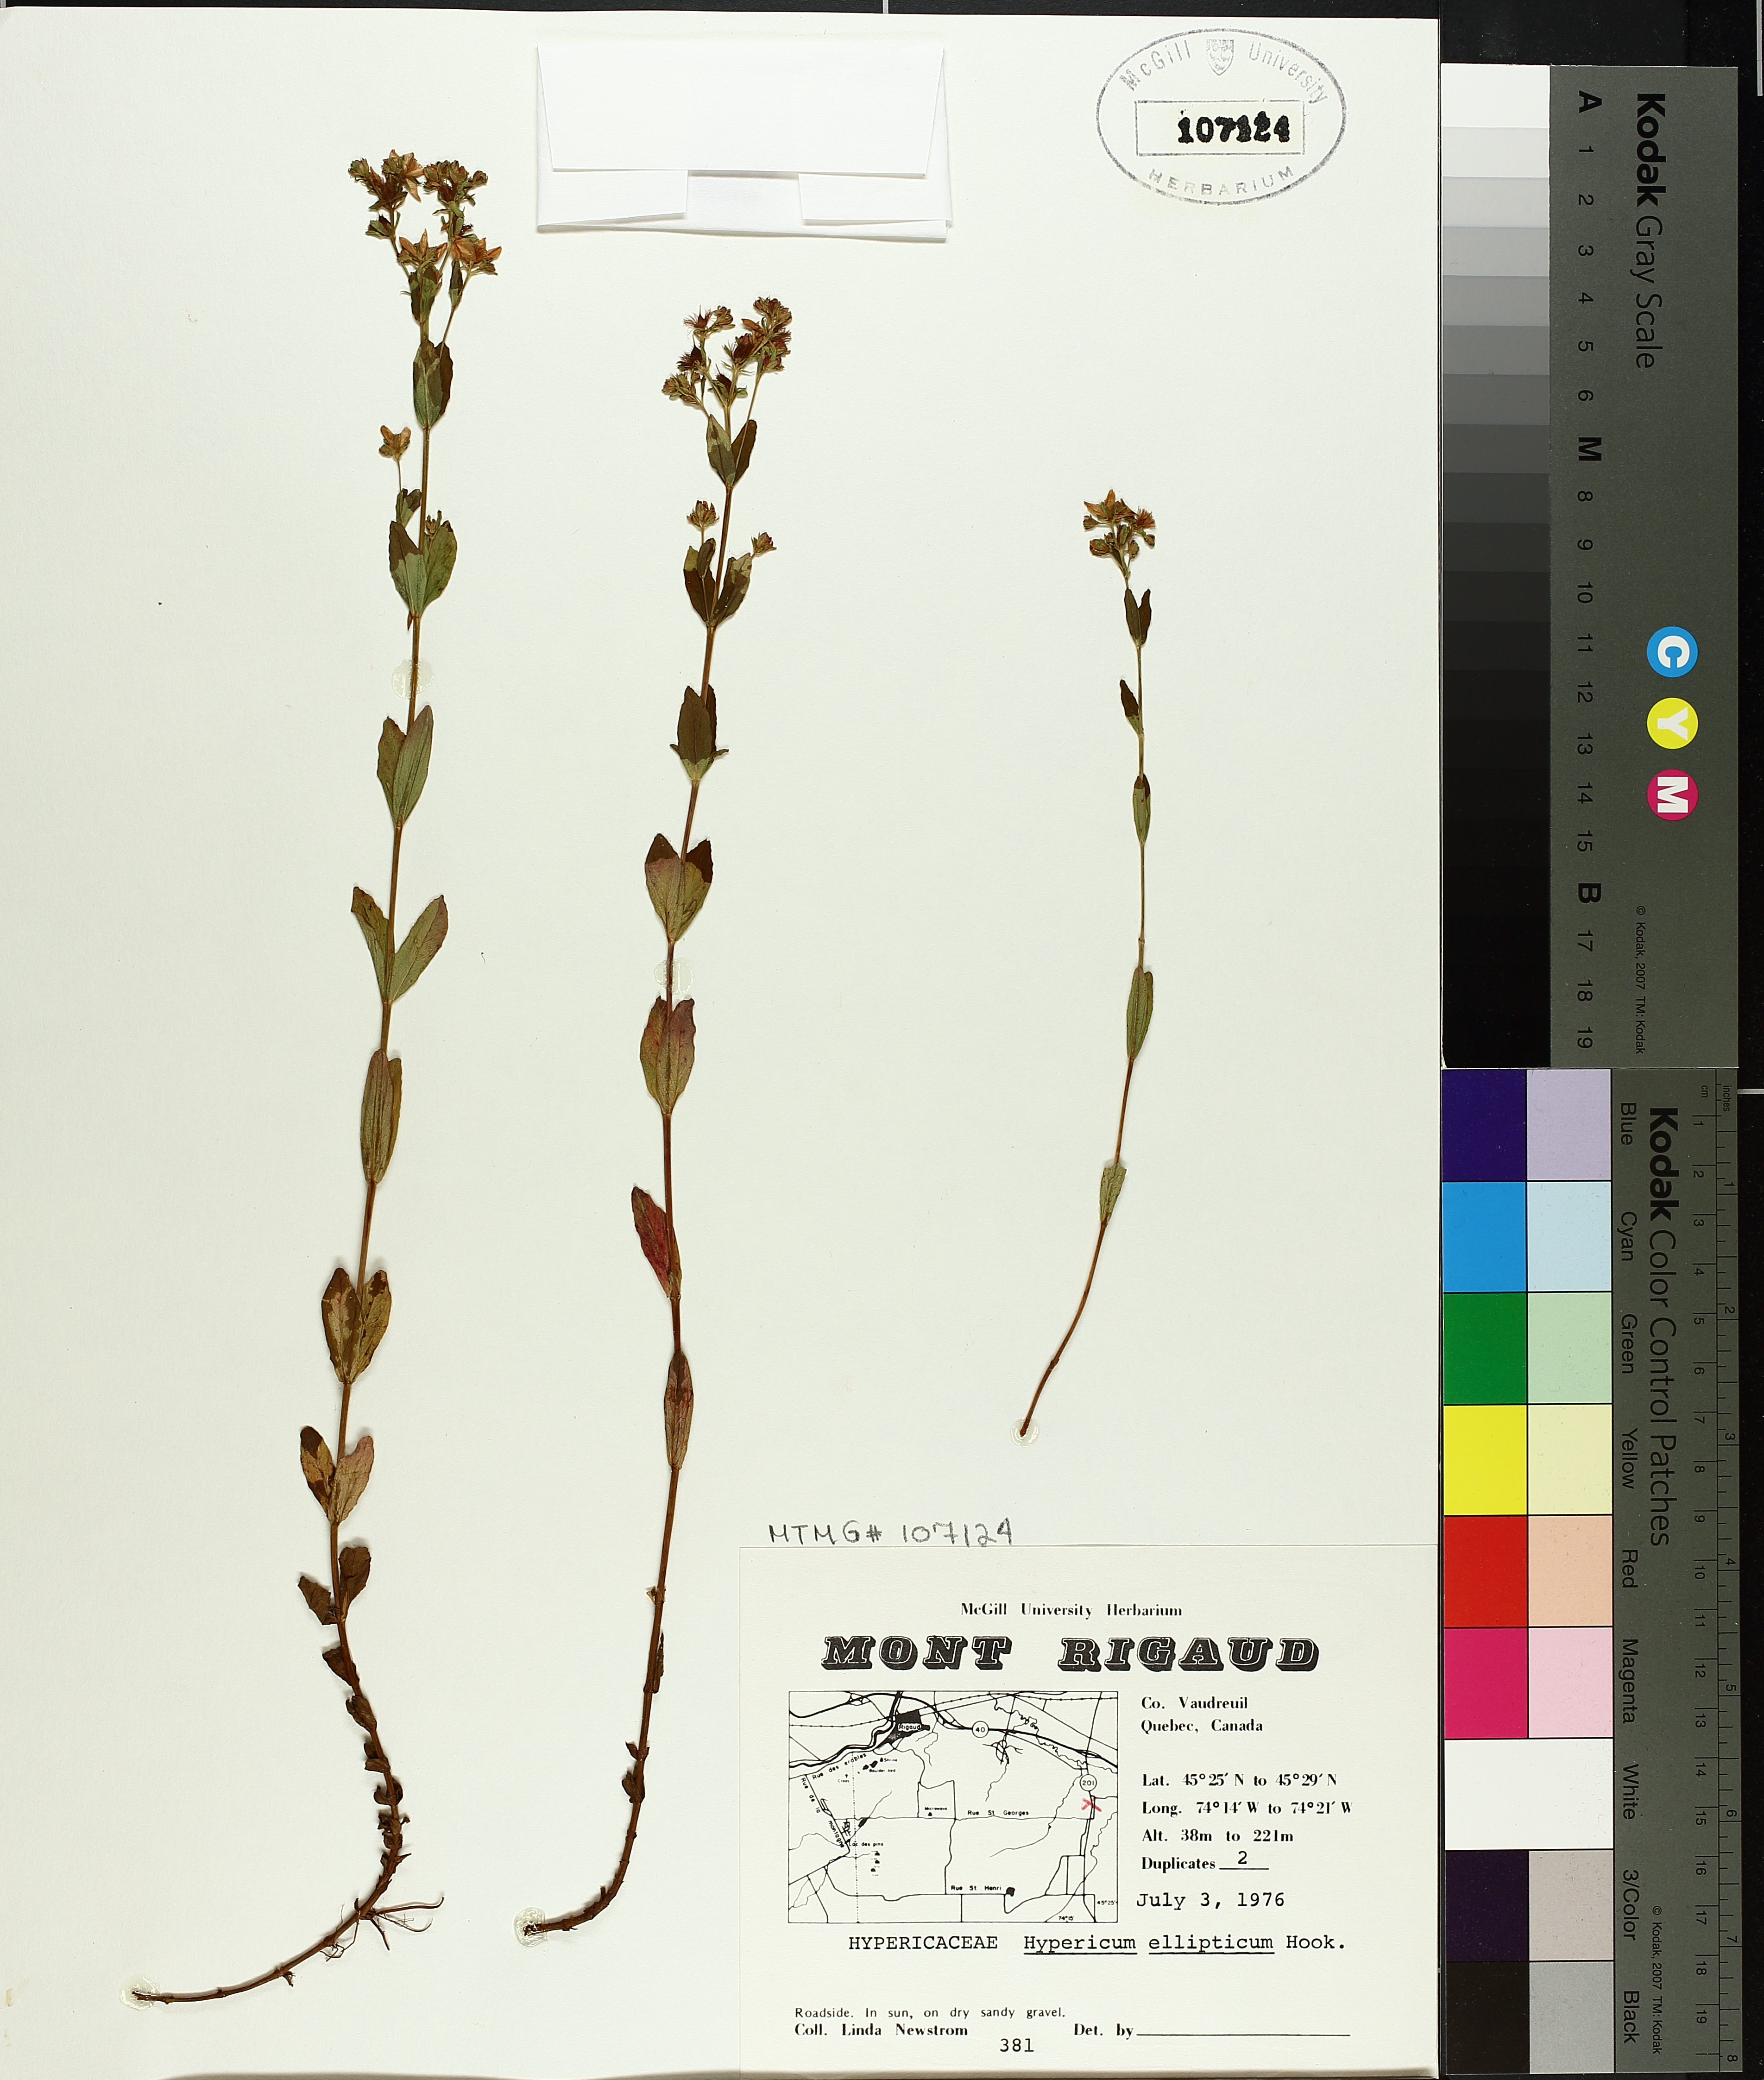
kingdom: Plantae
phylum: Tracheophyta
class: Magnoliopsida
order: Malpighiales
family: Hypericaceae
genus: Hypericum
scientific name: Hypericum ellipticum
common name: Elliptic st. john's-wort
